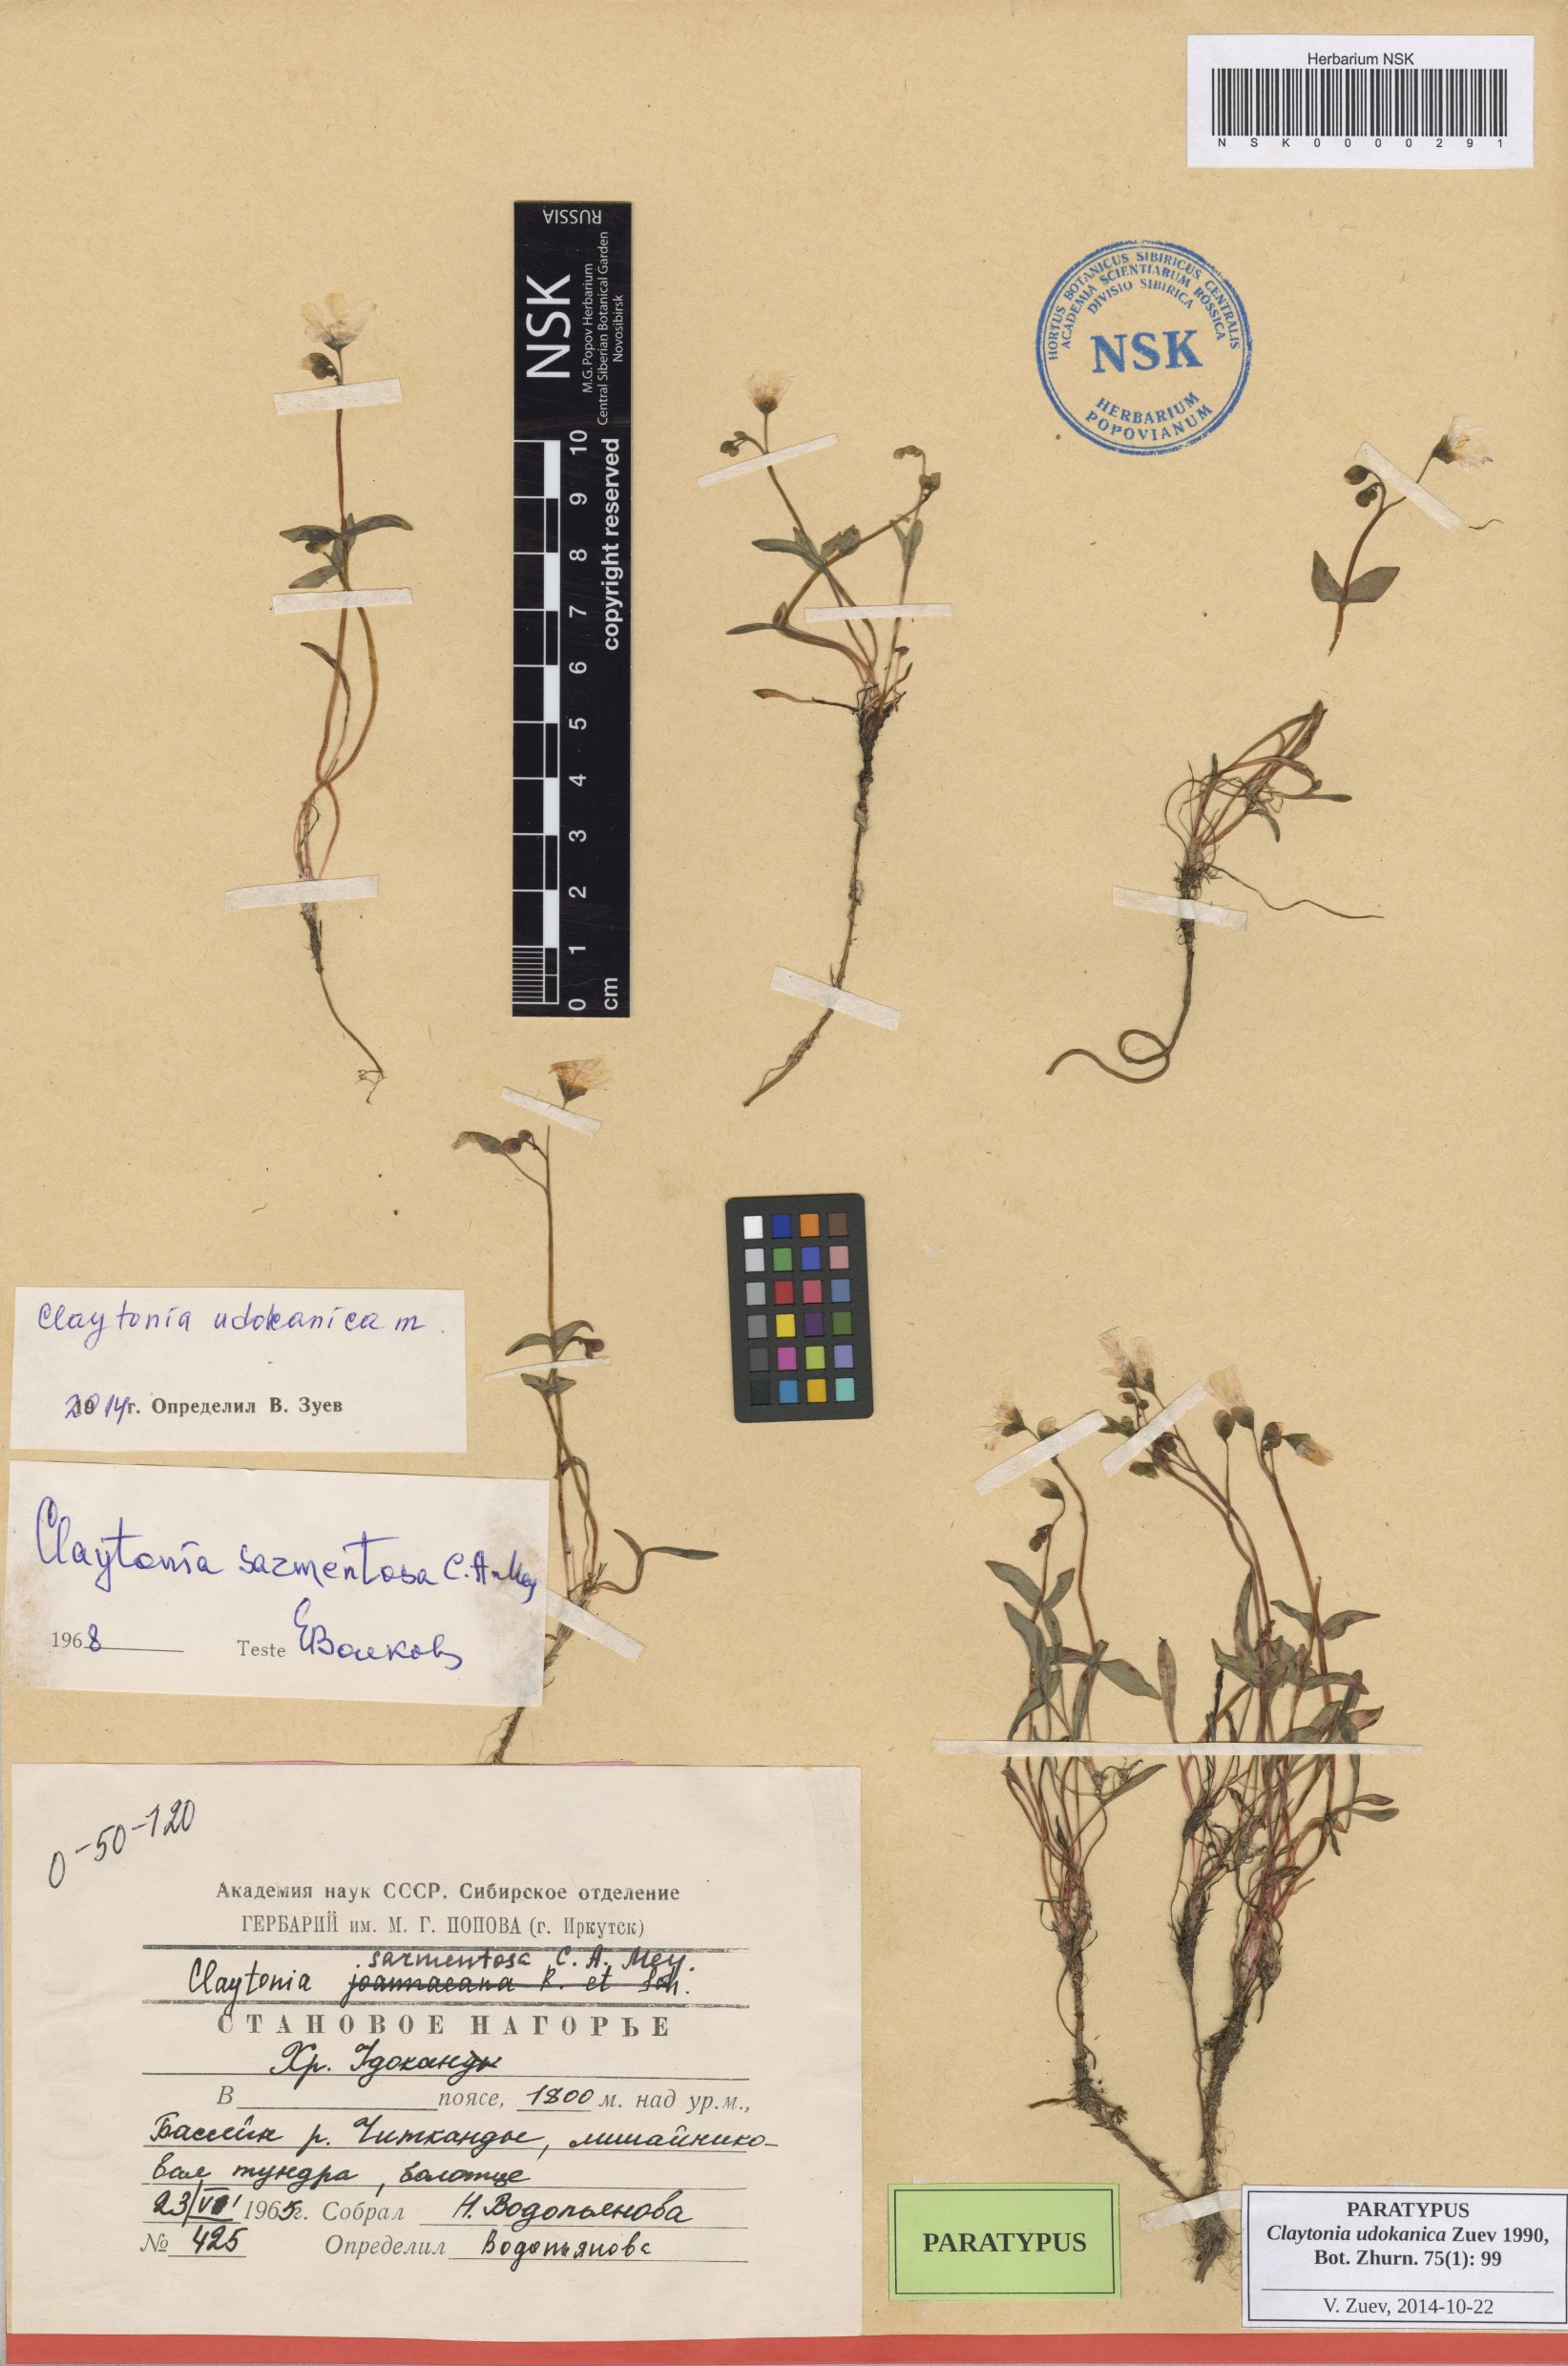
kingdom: Plantae
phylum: Tracheophyta
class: Magnoliopsida
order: Caryophyllales
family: Montiaceae
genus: Claytonia
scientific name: Claytonia udokanica
